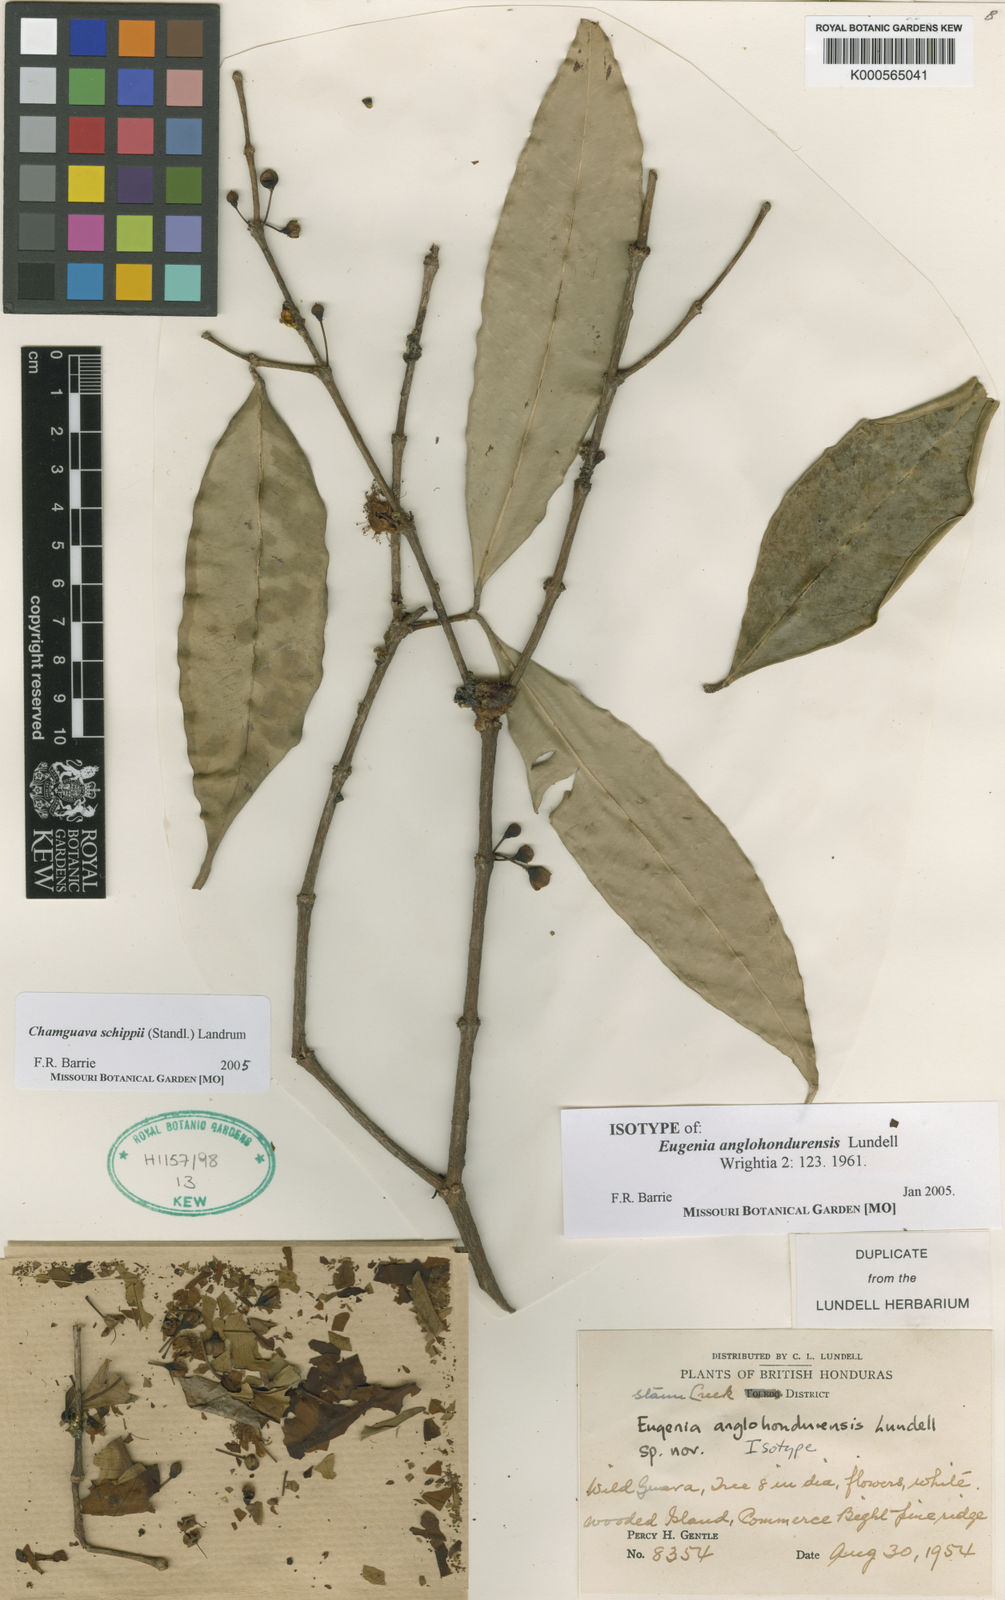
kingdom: Plantae
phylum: Tracheophyta
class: Magnoliopsida
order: Myrtales
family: Myrtaceae
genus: Chamguava
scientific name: Chamguava schippii
